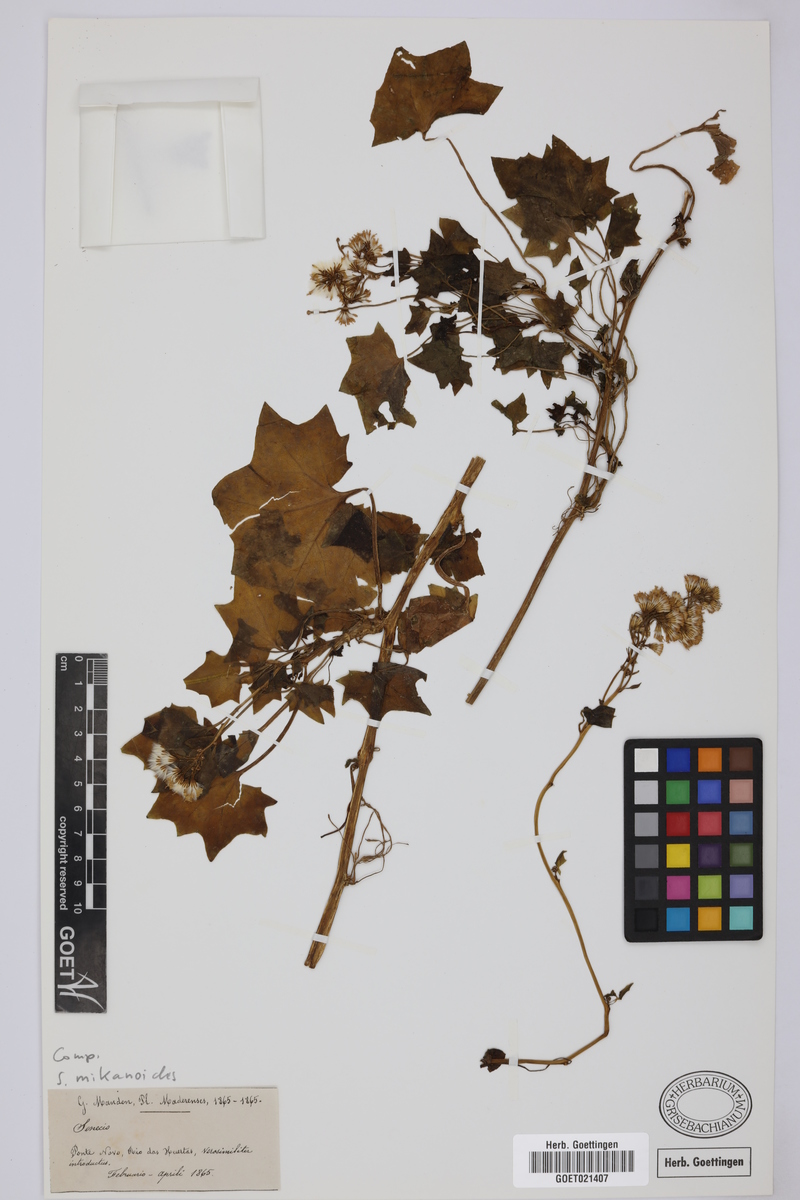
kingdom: Plantae
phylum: Tracheophyta
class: Magnoliopsida
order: Asterales
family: Asteraceae
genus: Senecio
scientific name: Senecio mikanioides
